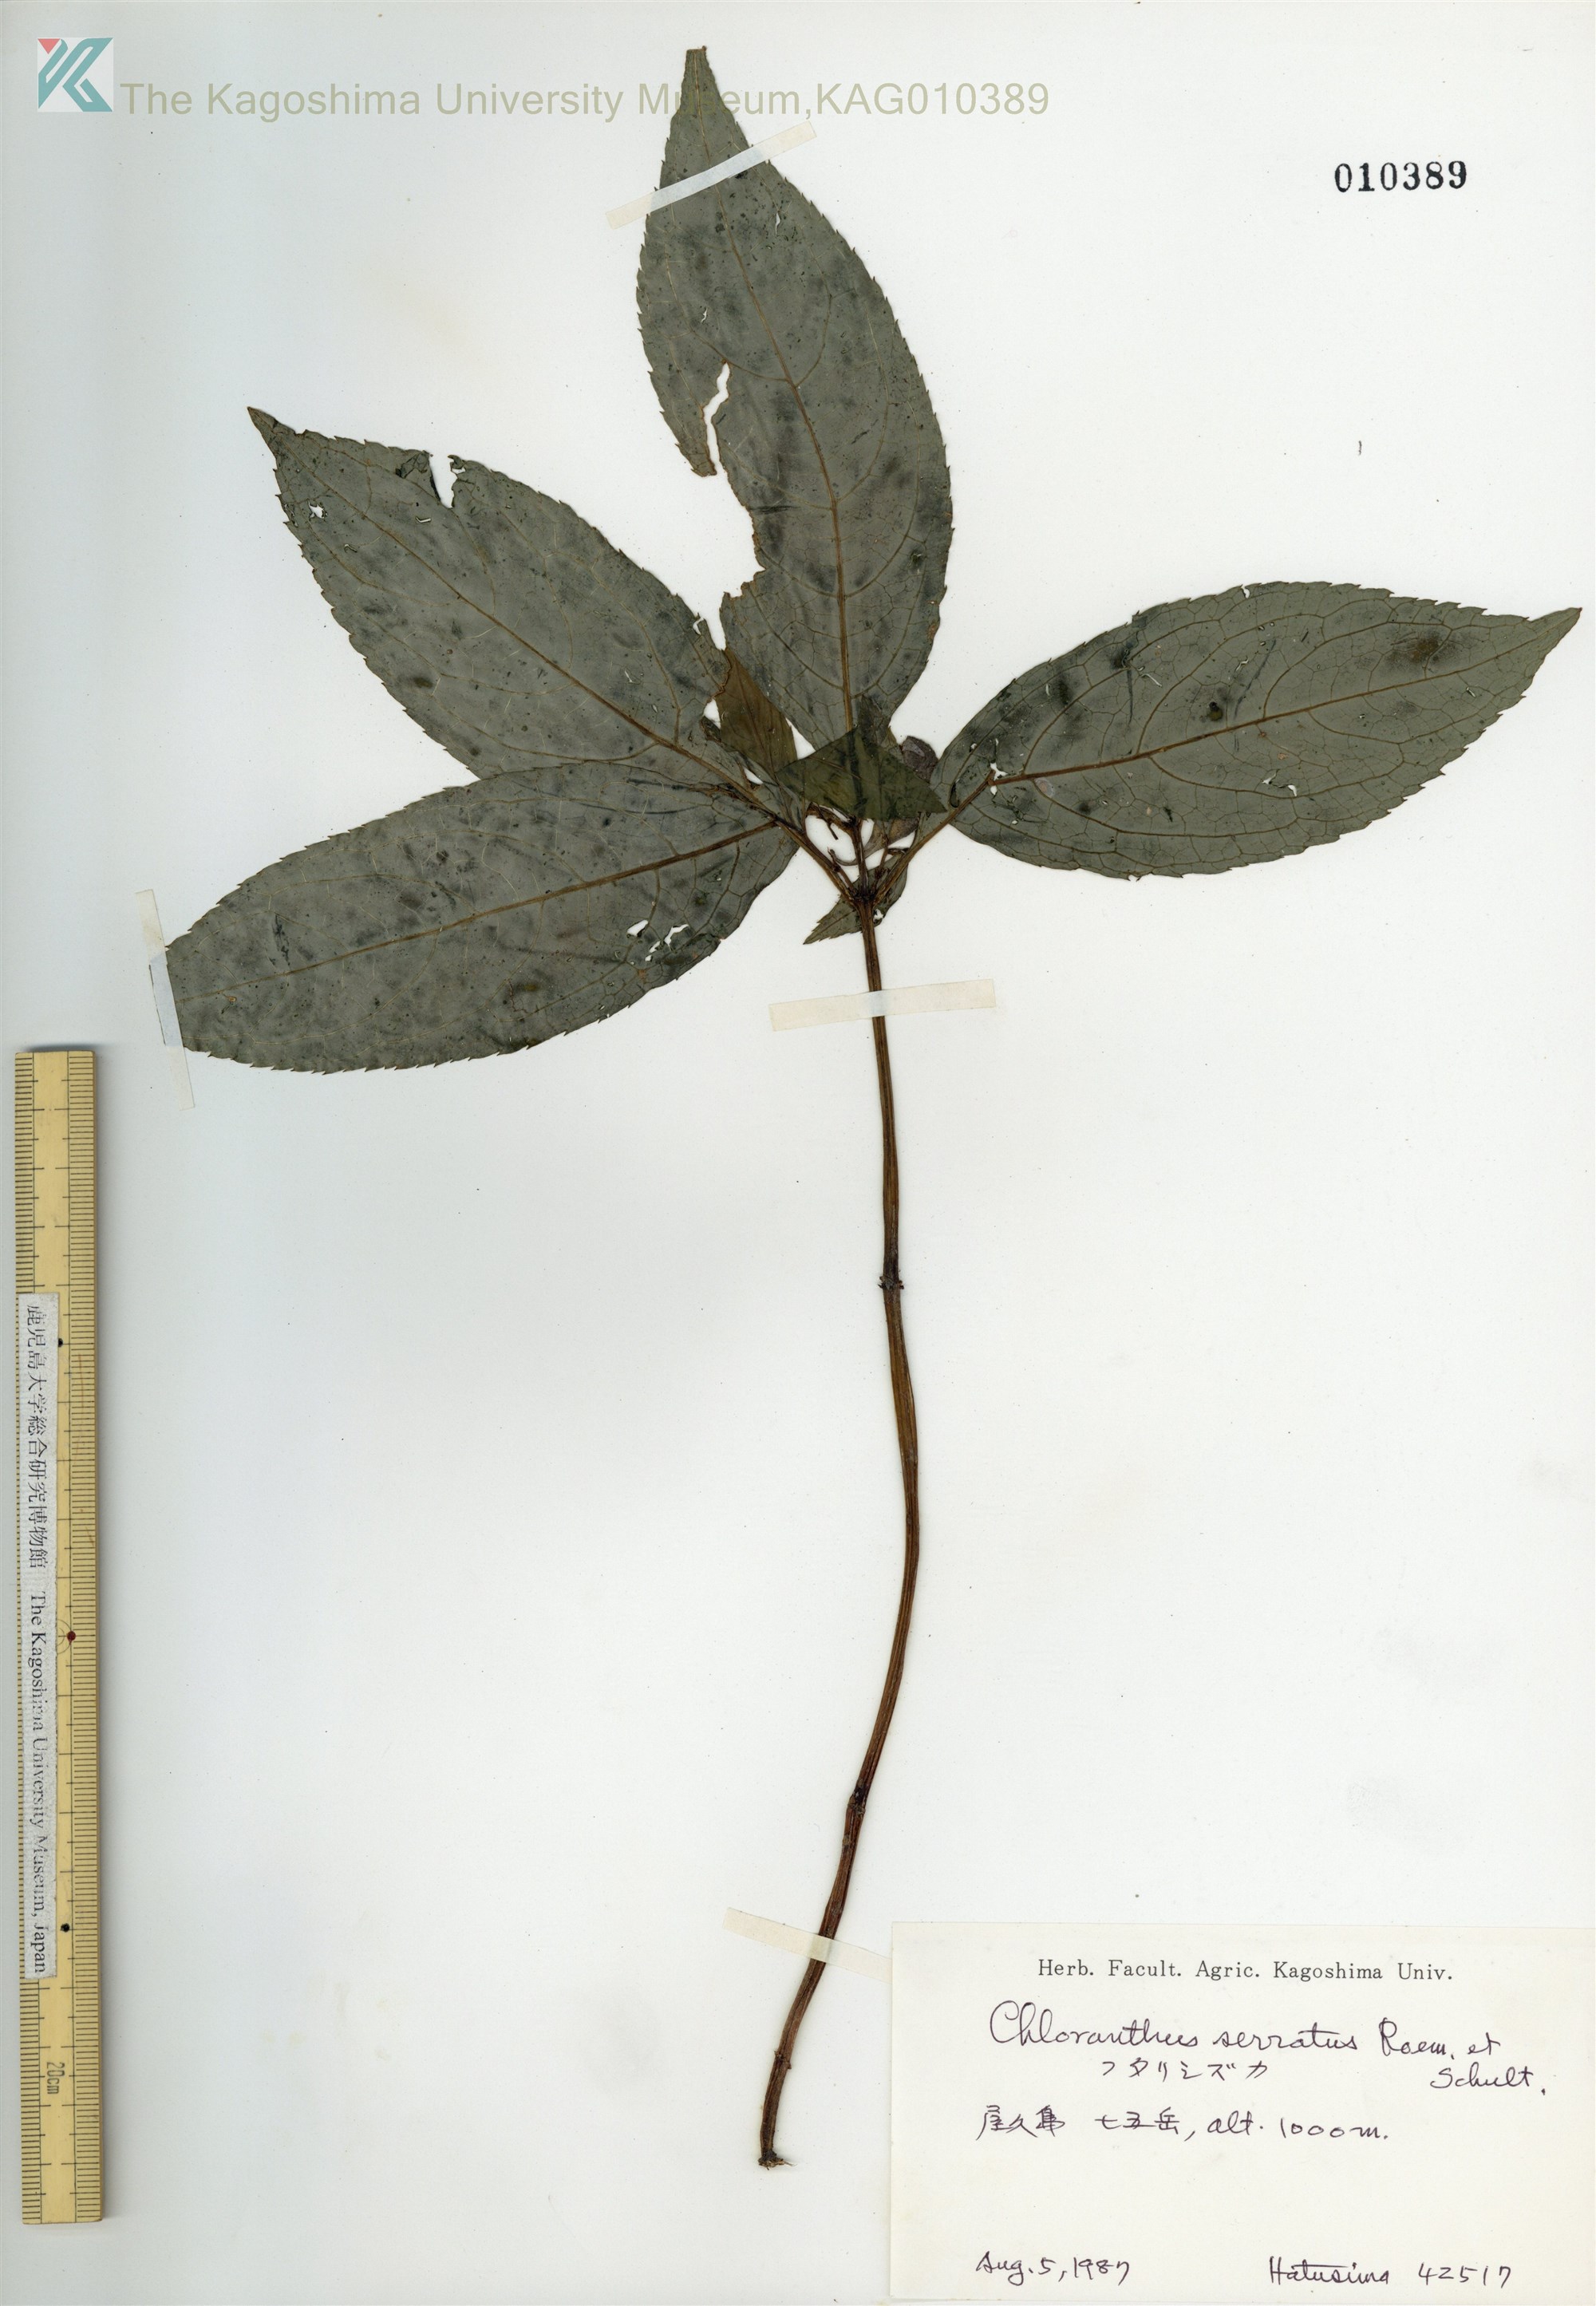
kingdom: Plantae
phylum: Tracheophyta
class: Magnoliopsida
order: Chloranthales
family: Chloranthaceae
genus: Chloranthus
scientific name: Chloranthus serratus
